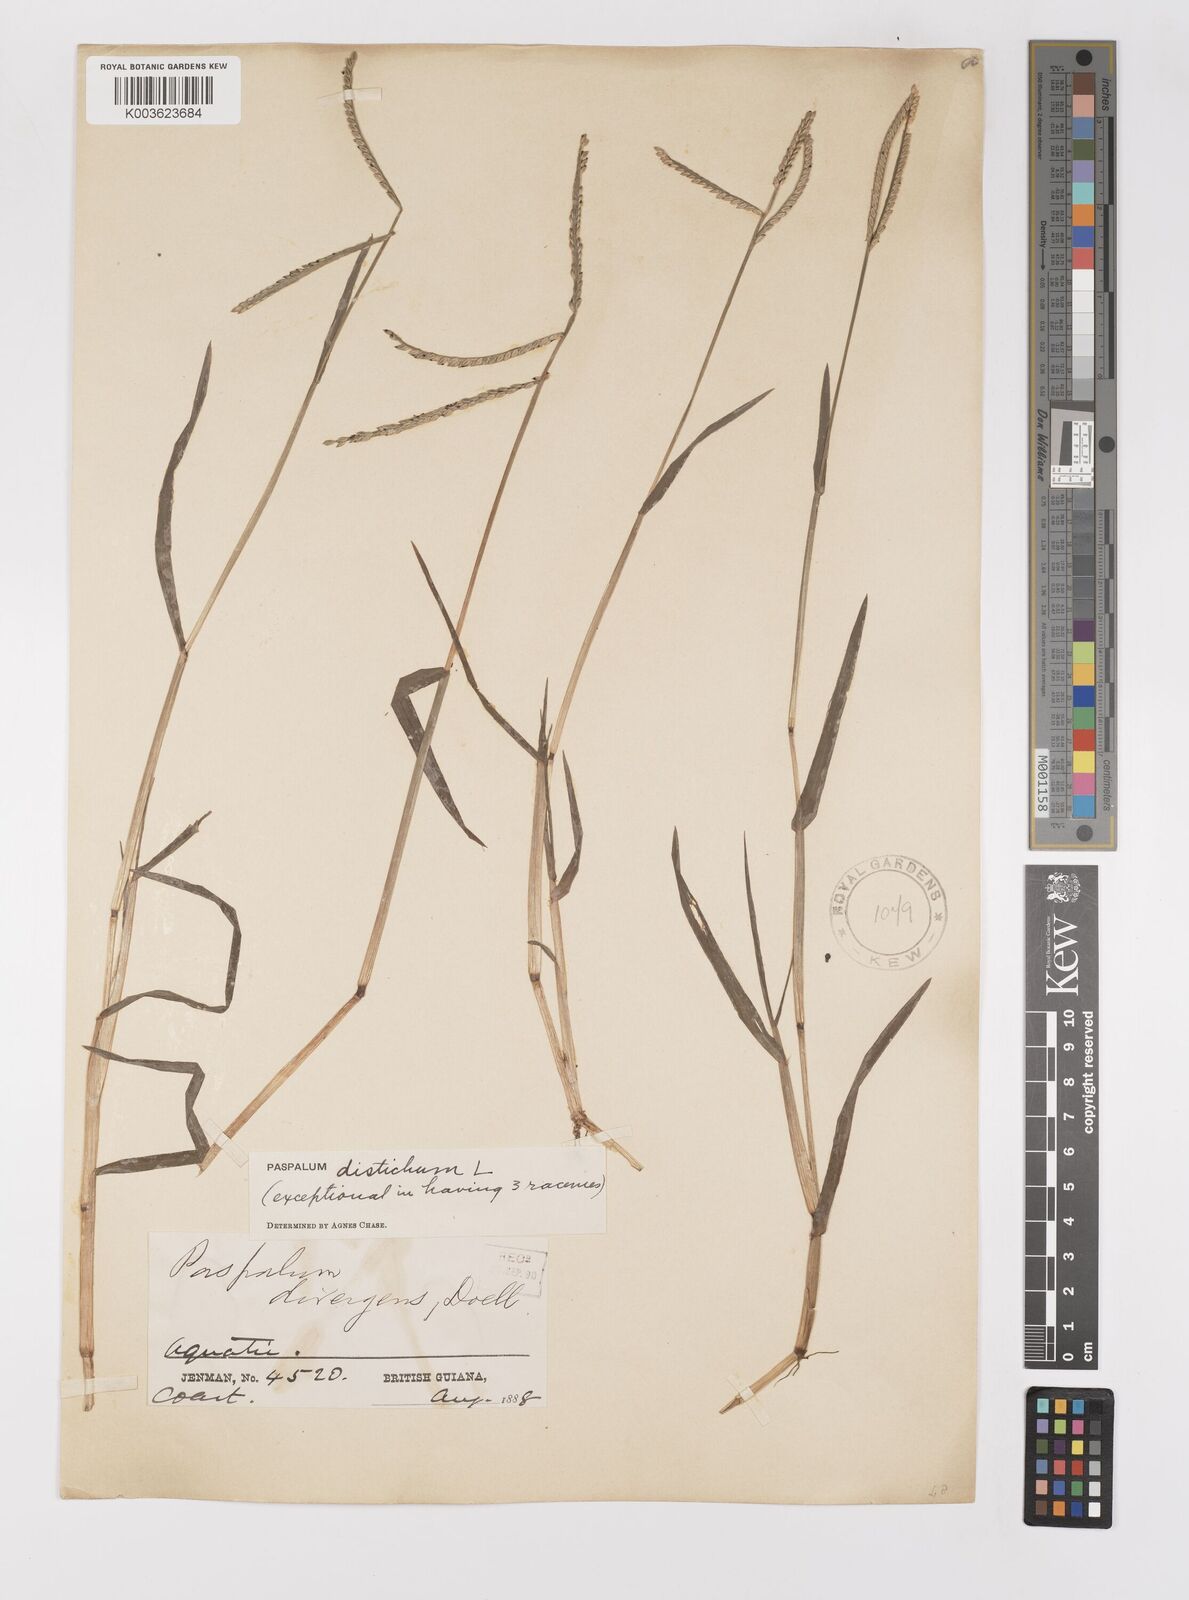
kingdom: Plantae
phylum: Tracheophyta
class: Liliopsida
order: Poales
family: Poaceae
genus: Paspalum
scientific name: Paspalum distichum
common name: Knotgrass
